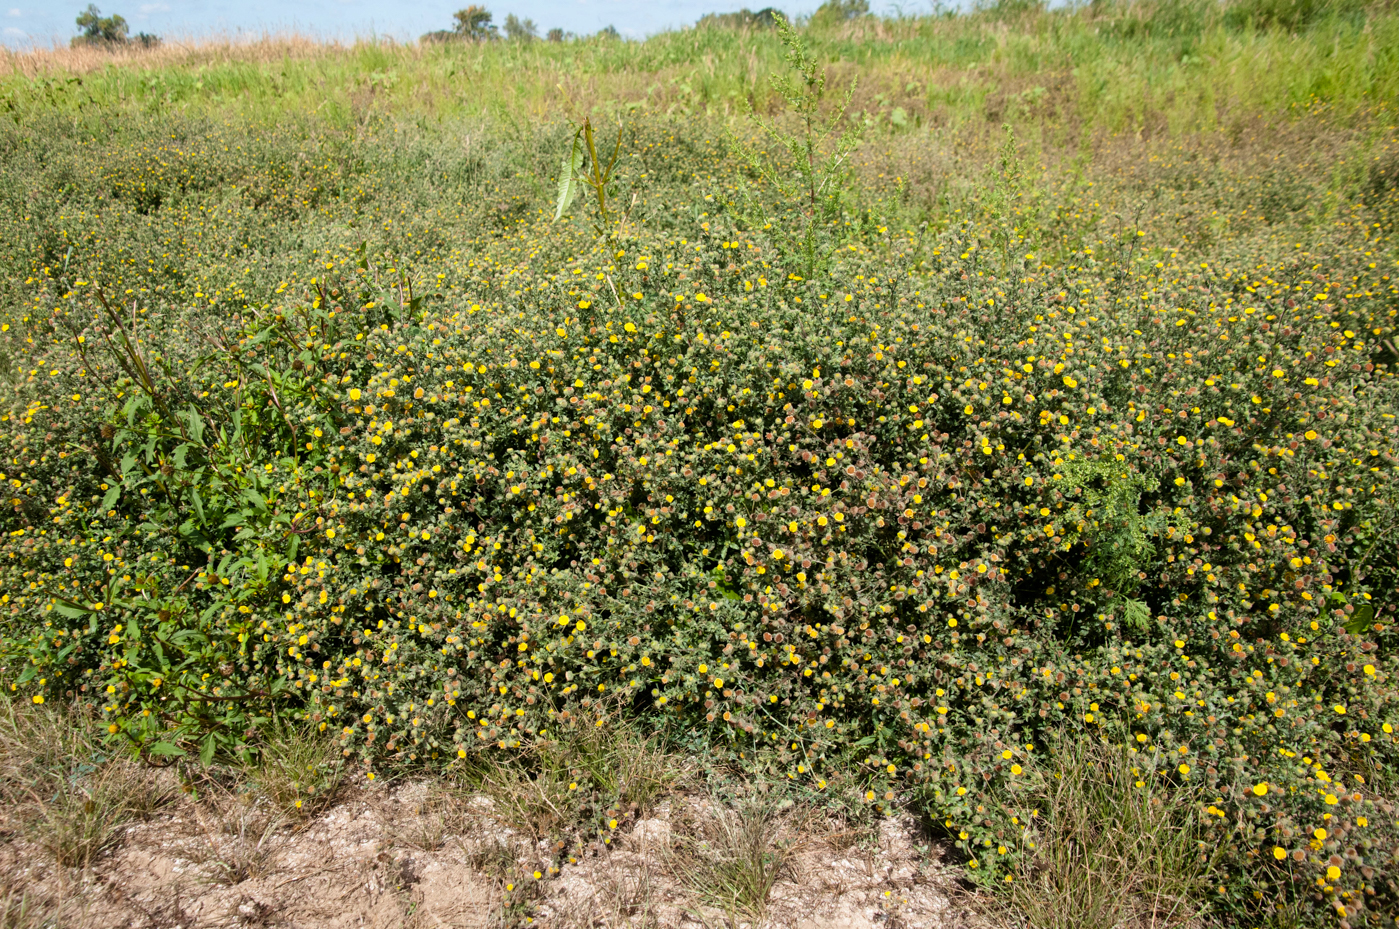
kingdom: Plantae
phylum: Tracheophyta
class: Magnoliopsida
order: Asterales
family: Asteraceae
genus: Pulicaria
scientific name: Pulicaria vulgaris
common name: Small fleabane
